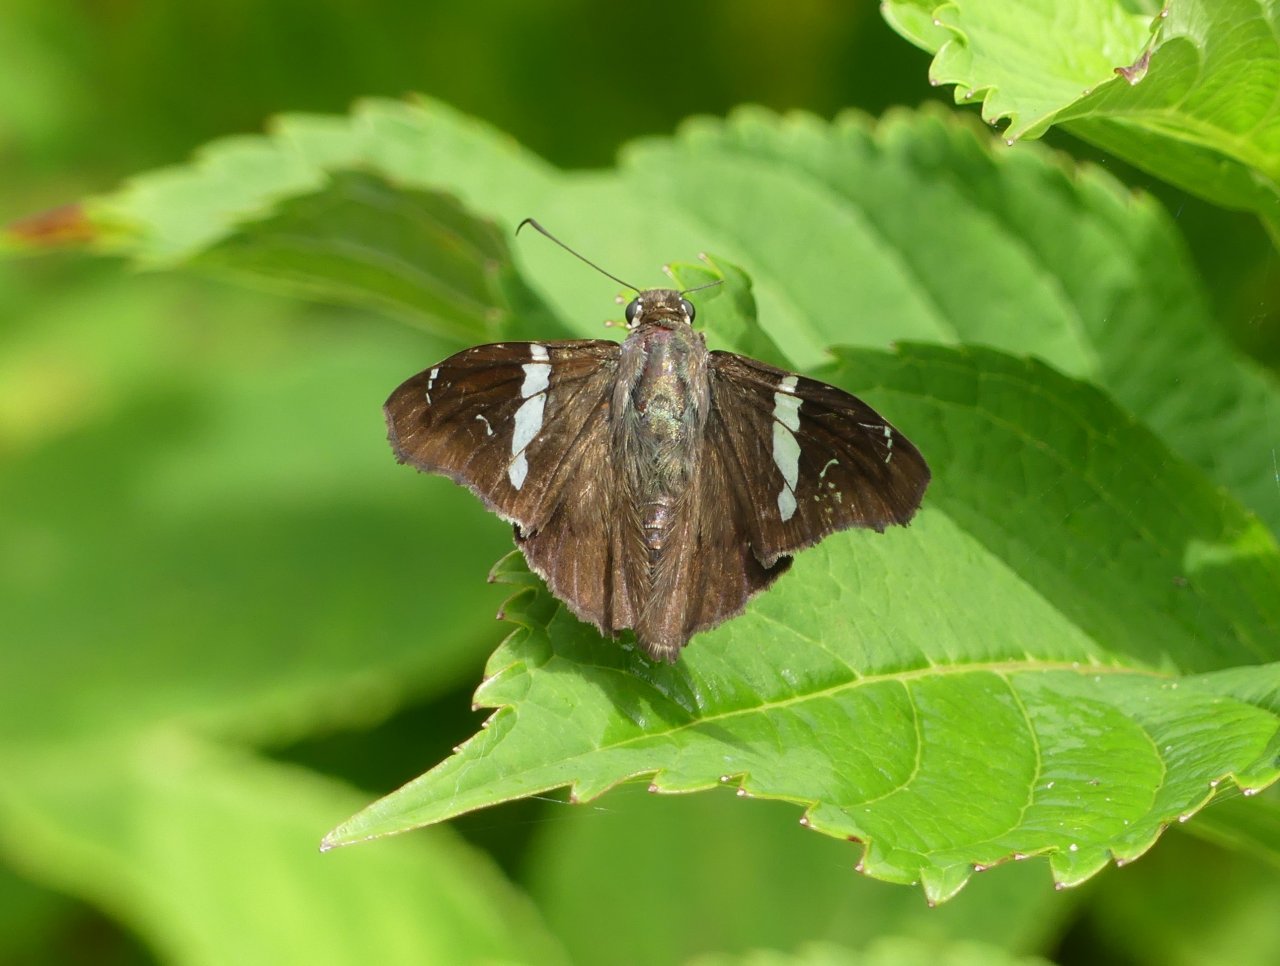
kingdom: Animalia
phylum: Arthropoda
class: Insecta
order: Lepidoptera
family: Hesperiidae
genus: Spathilepia
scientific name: Spathilepia clonius
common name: Falcate Skipper
